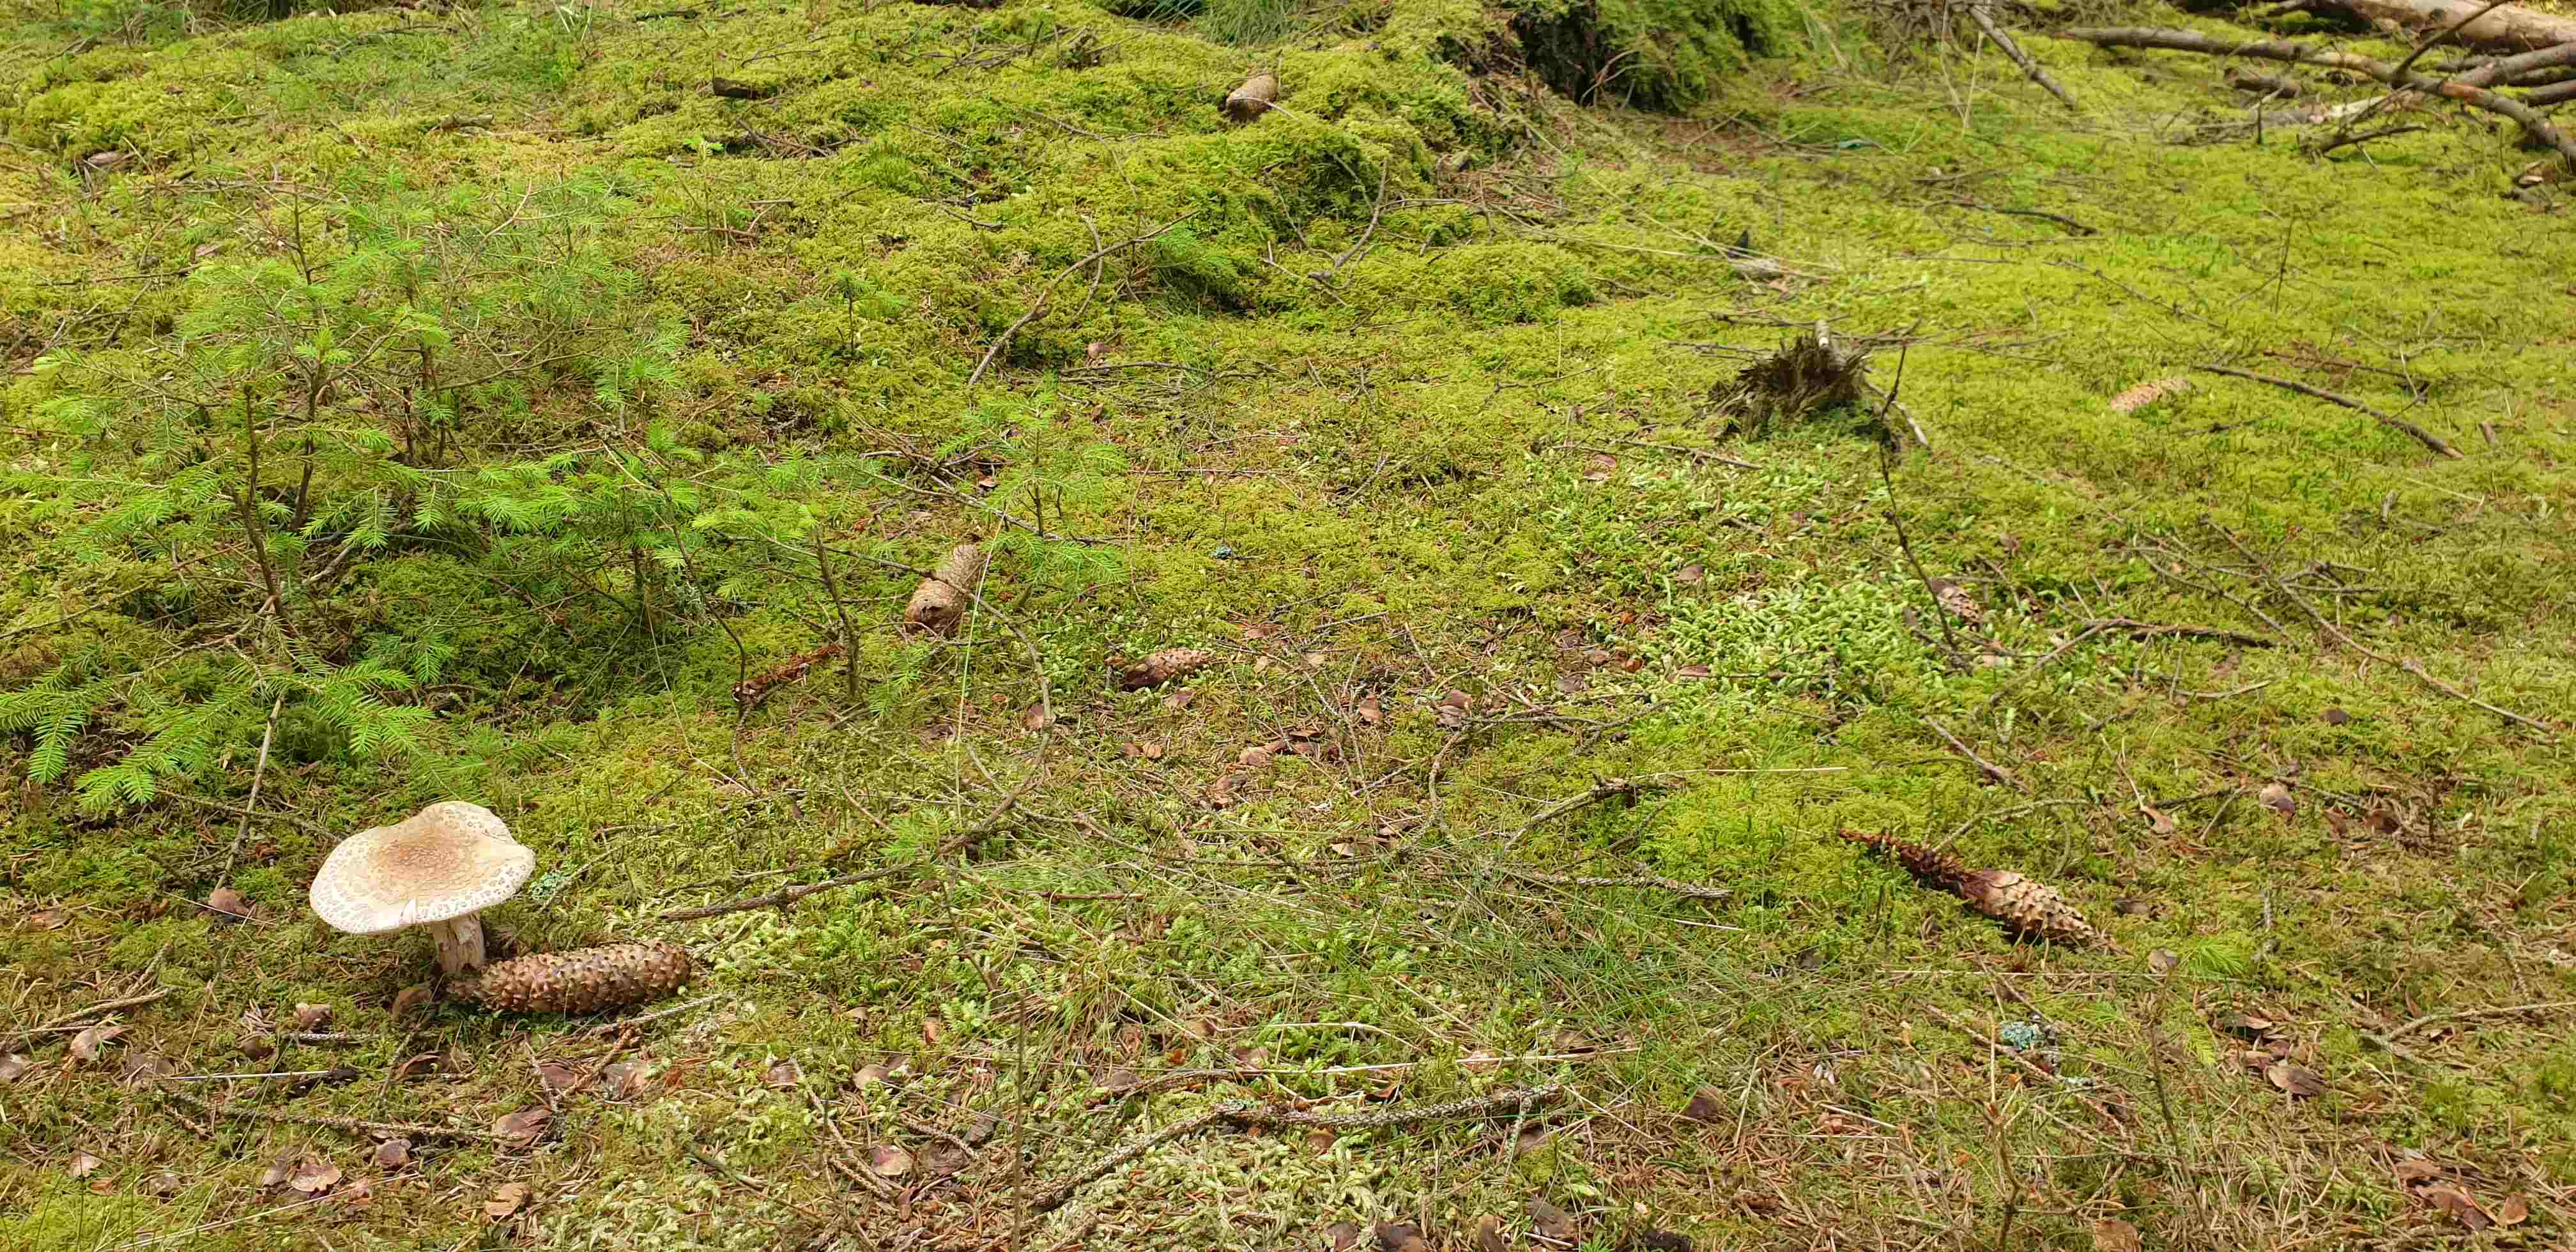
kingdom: Fungi
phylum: Basidiomycota
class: Agaricomycetes
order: Agaricales
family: Amanitaceae
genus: Amanita
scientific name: Amanita rubescens
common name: rødmende fluesvamp
